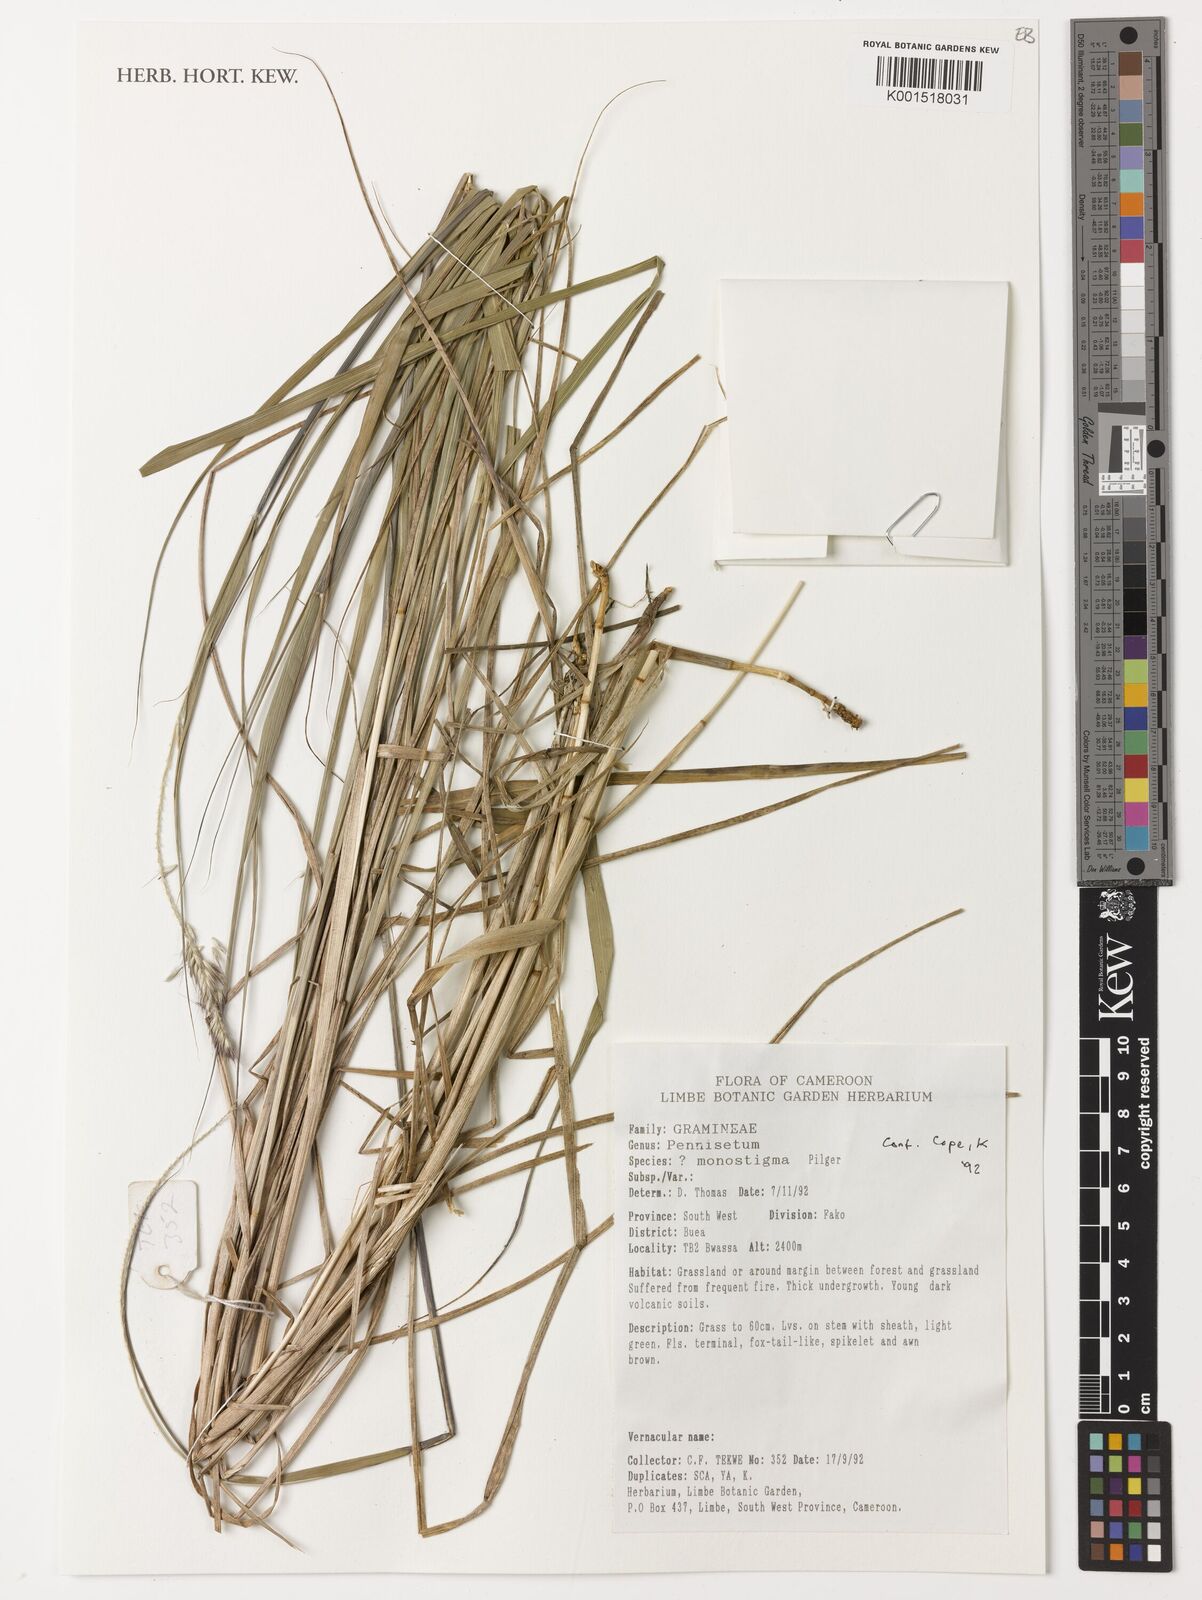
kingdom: Plantae
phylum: Tracheophyta
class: Liliopsida
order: Poales
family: Poaceae
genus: Cenchrus
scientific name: Cenchrus monostigma
